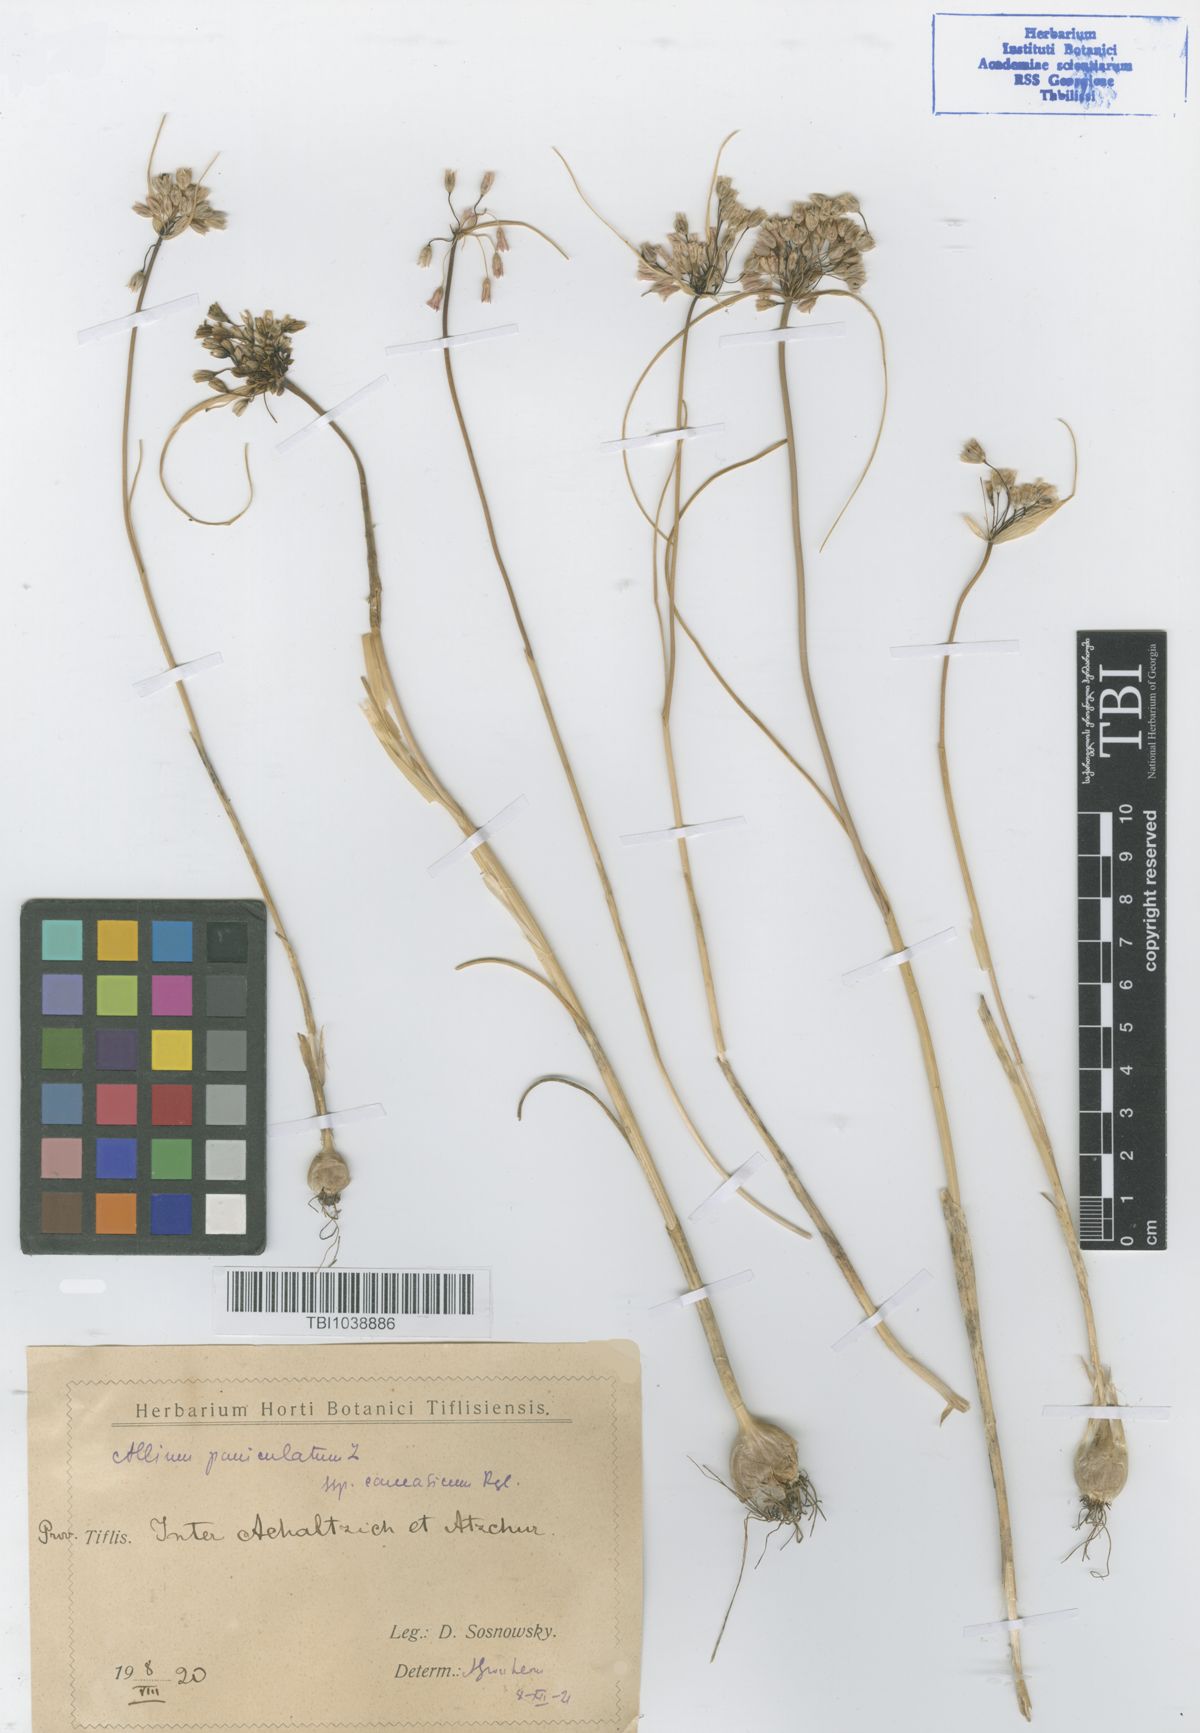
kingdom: Plantae
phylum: Tracheophyta
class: Liliopsida
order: Asparagales
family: Amaryllidaceae
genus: Allium
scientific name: Allium paniculatum
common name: Pale garlic
